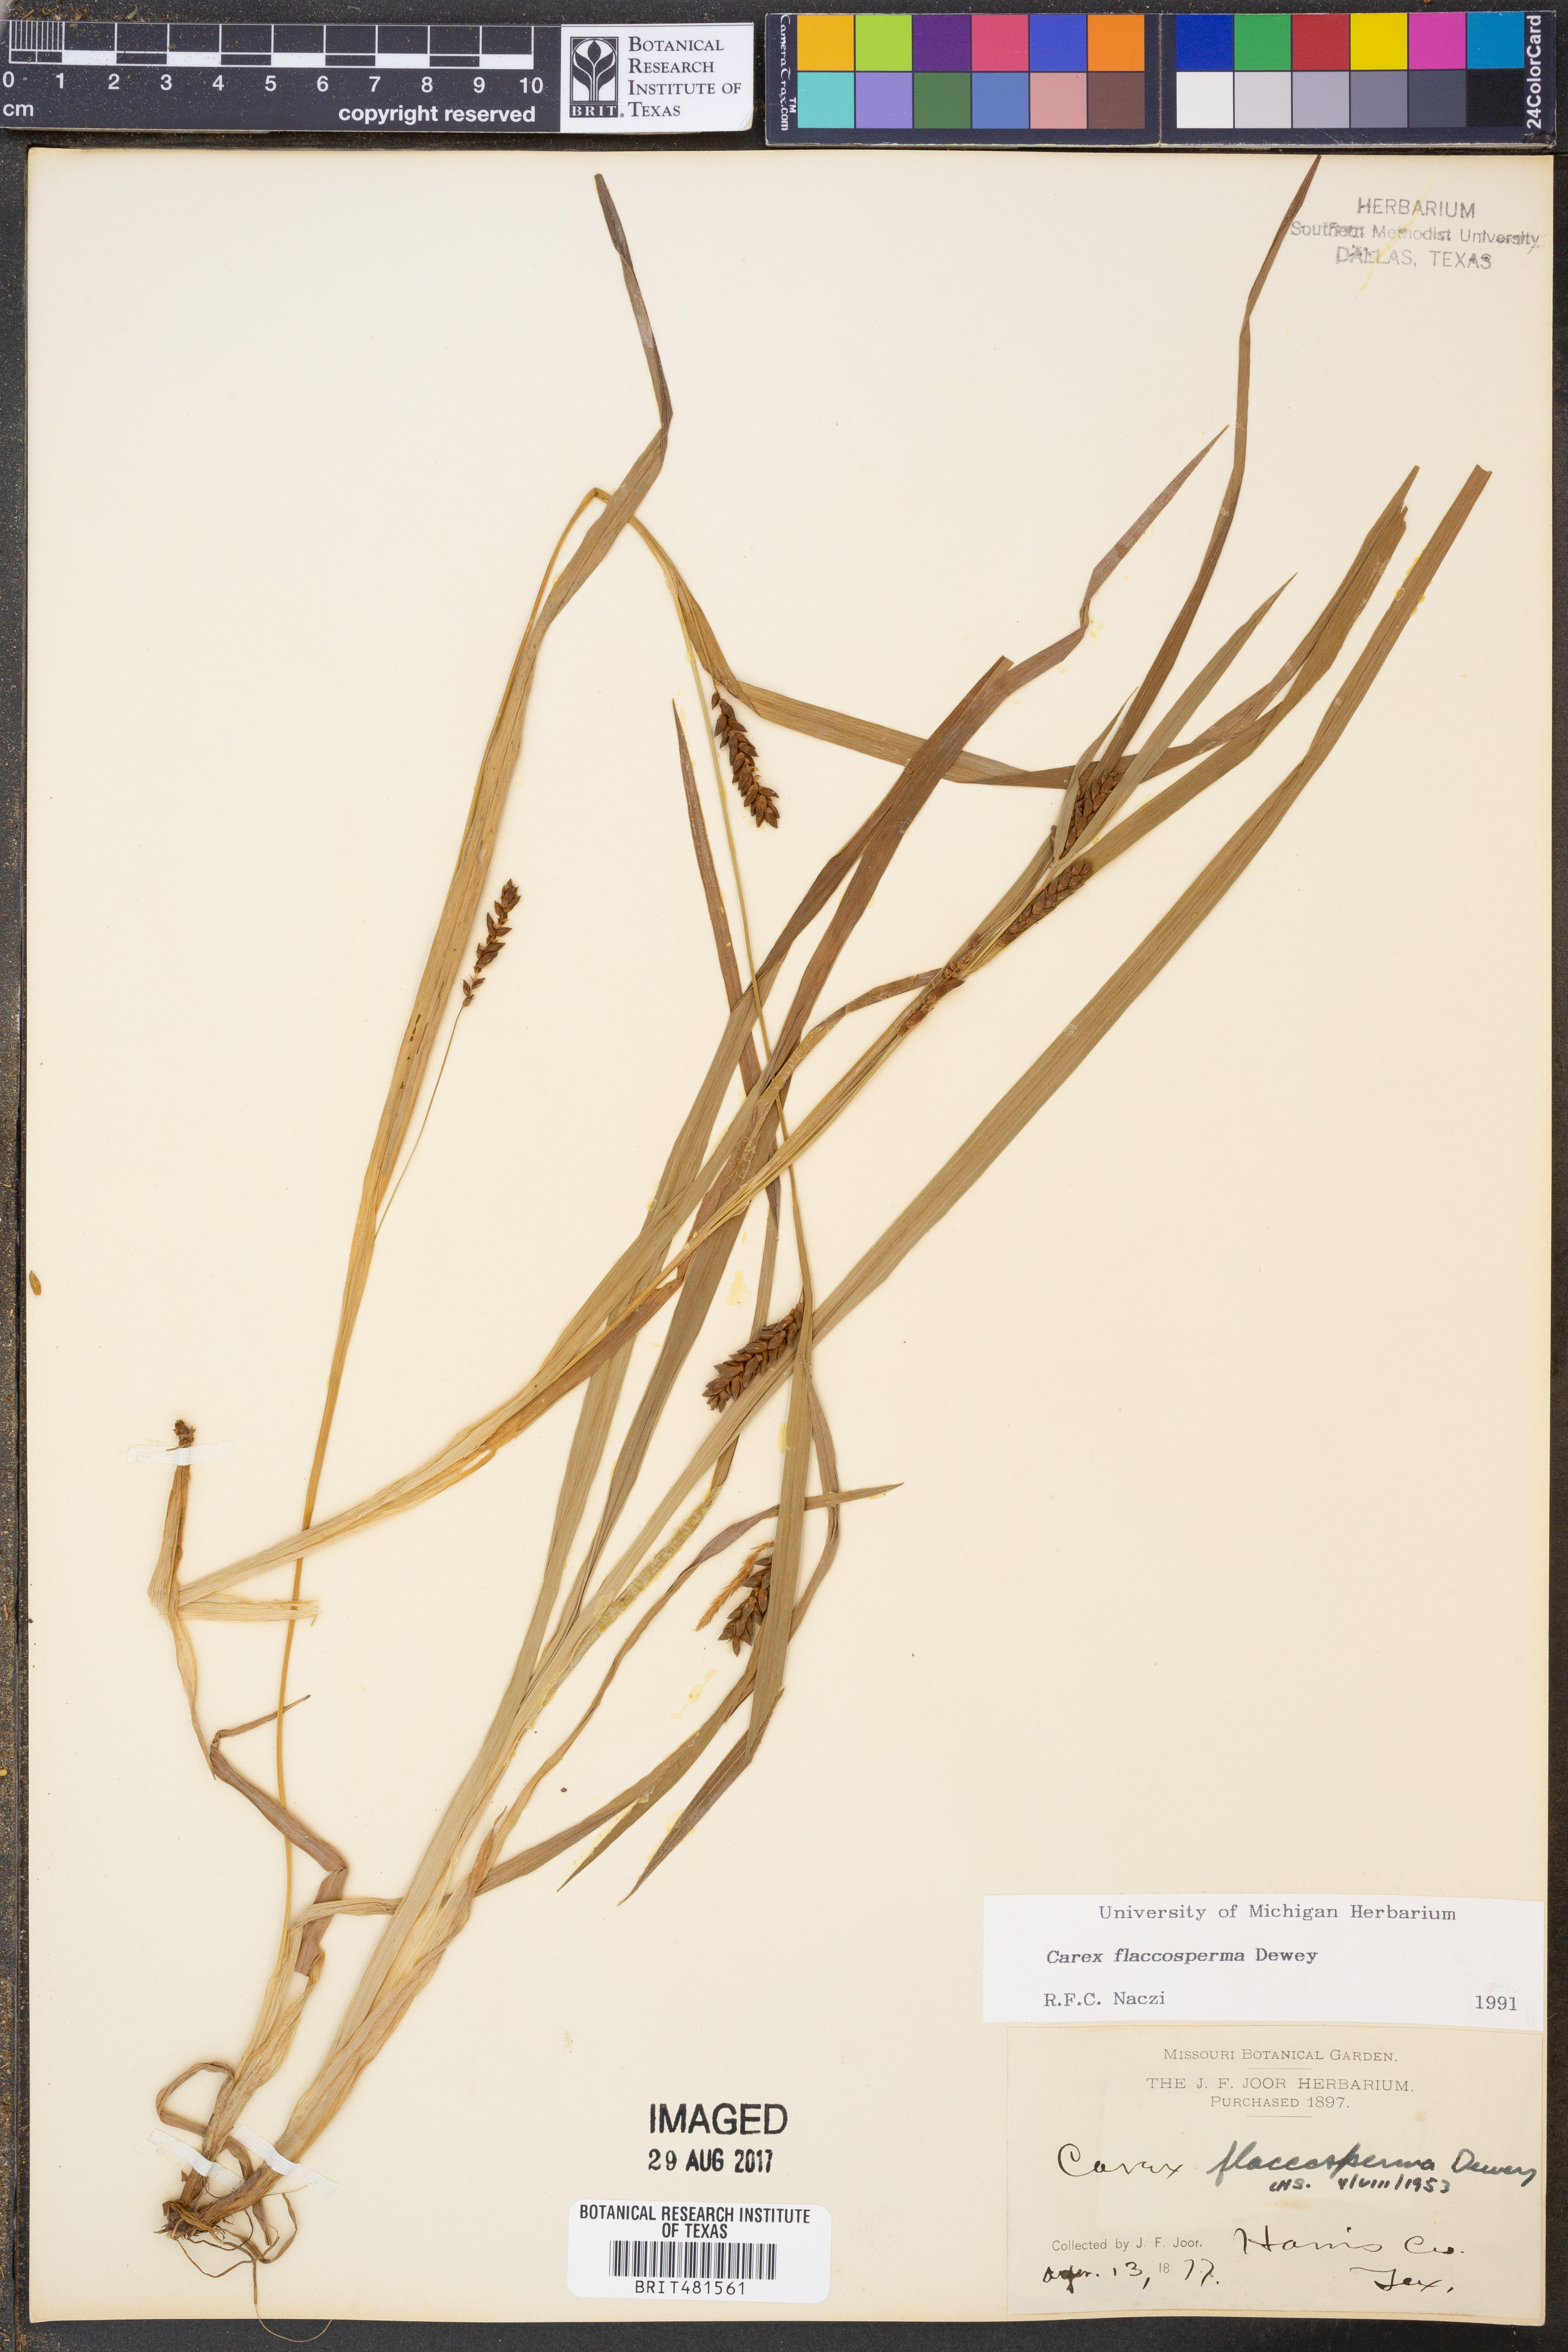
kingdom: Plantae
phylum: Tracheophyta
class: Liliopsida
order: Poales
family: Cyperaceae
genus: Carex
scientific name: Carex flaccosperma
